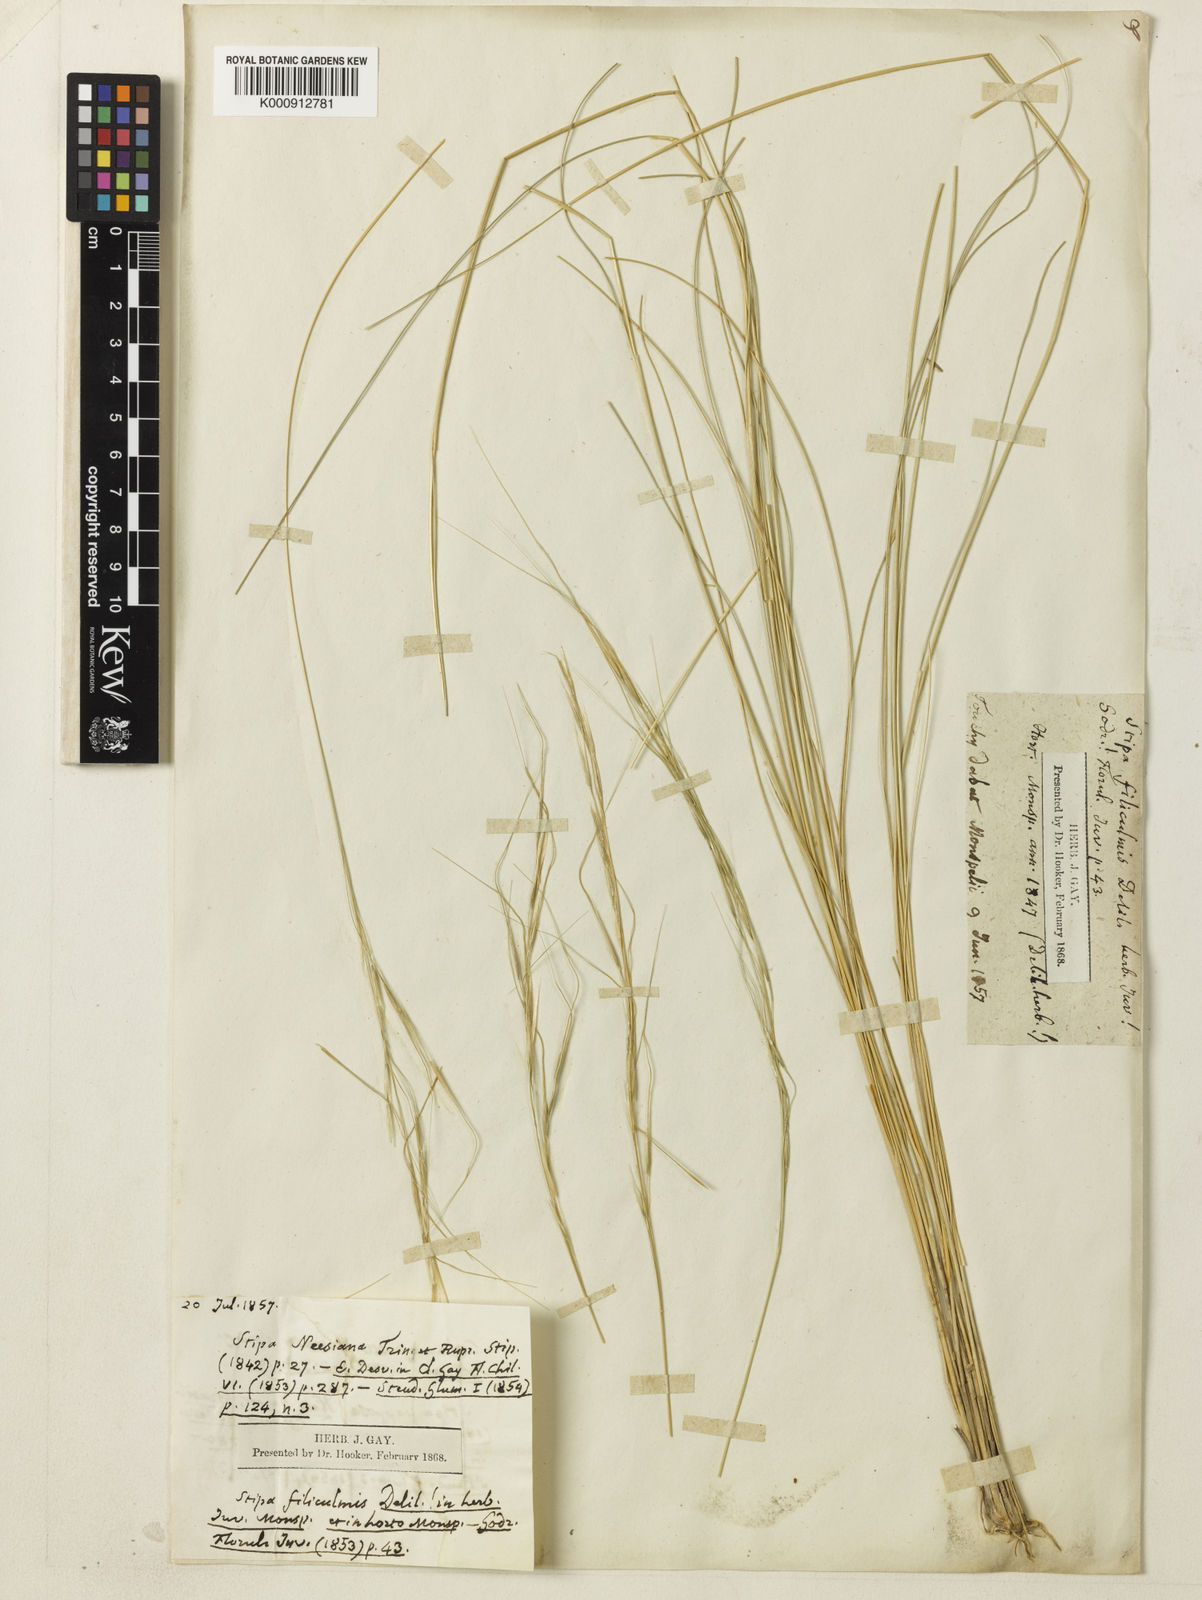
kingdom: Plantae
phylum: Tracheophyta
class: Liliopsida
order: Poales
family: Poaceae
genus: Nassella
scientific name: Nassella filiculmis
